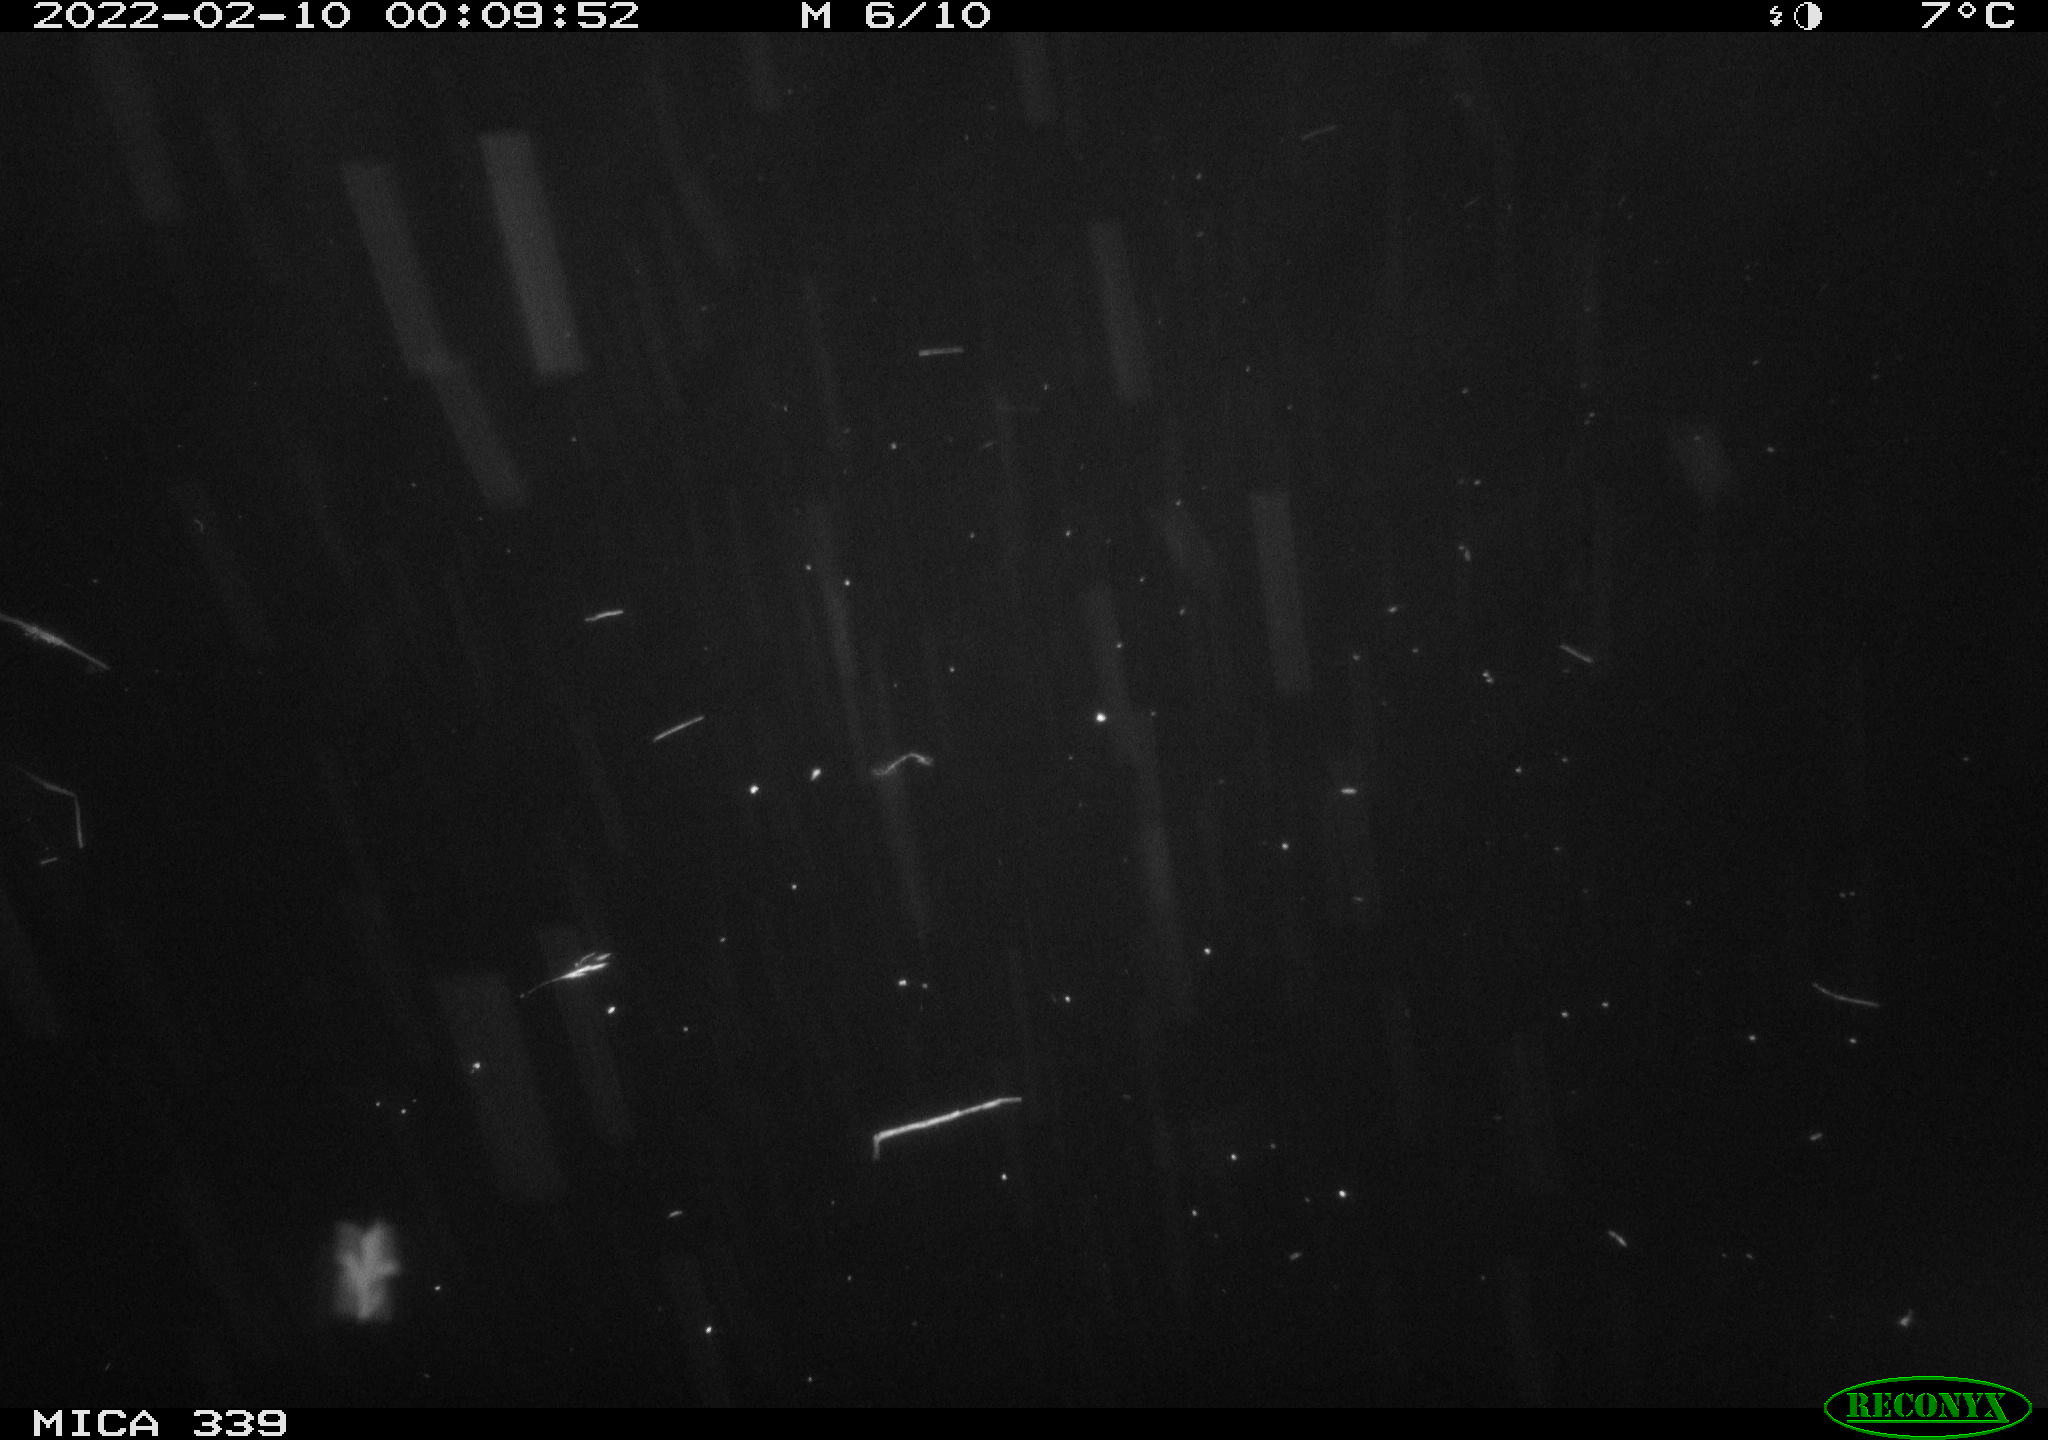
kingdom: Animalia
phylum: Chordata
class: Aves
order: Anseriformes
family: Anatidae
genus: Anas
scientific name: Anas platyrhynchos
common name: Mallard
